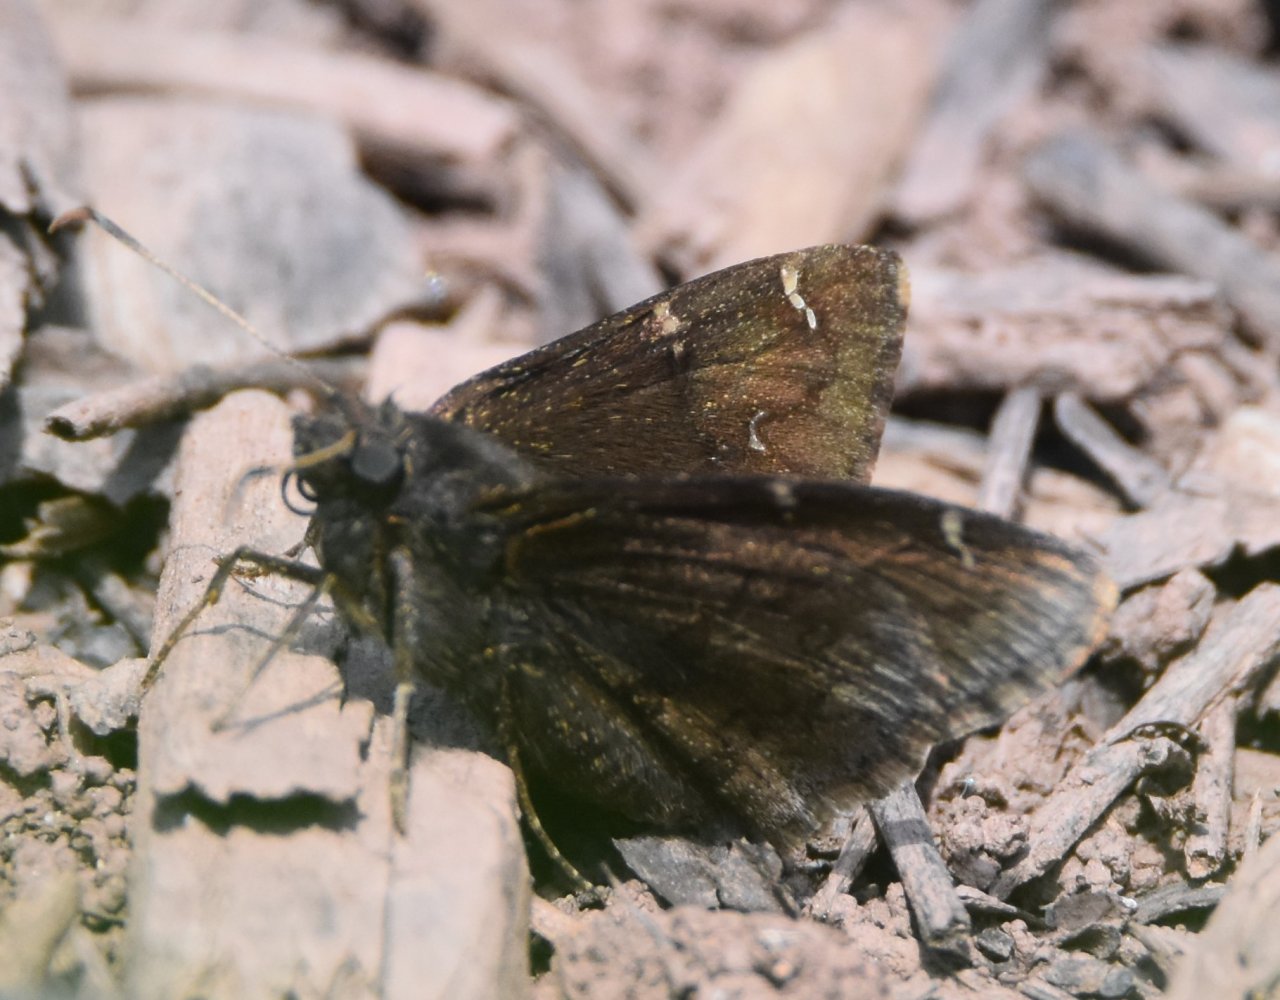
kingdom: Animalia
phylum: Arthropoda
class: Insecta
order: Lepidoptera
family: Hesperiidae
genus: Autochton
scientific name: Autochton
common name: Northern Cloudywing
